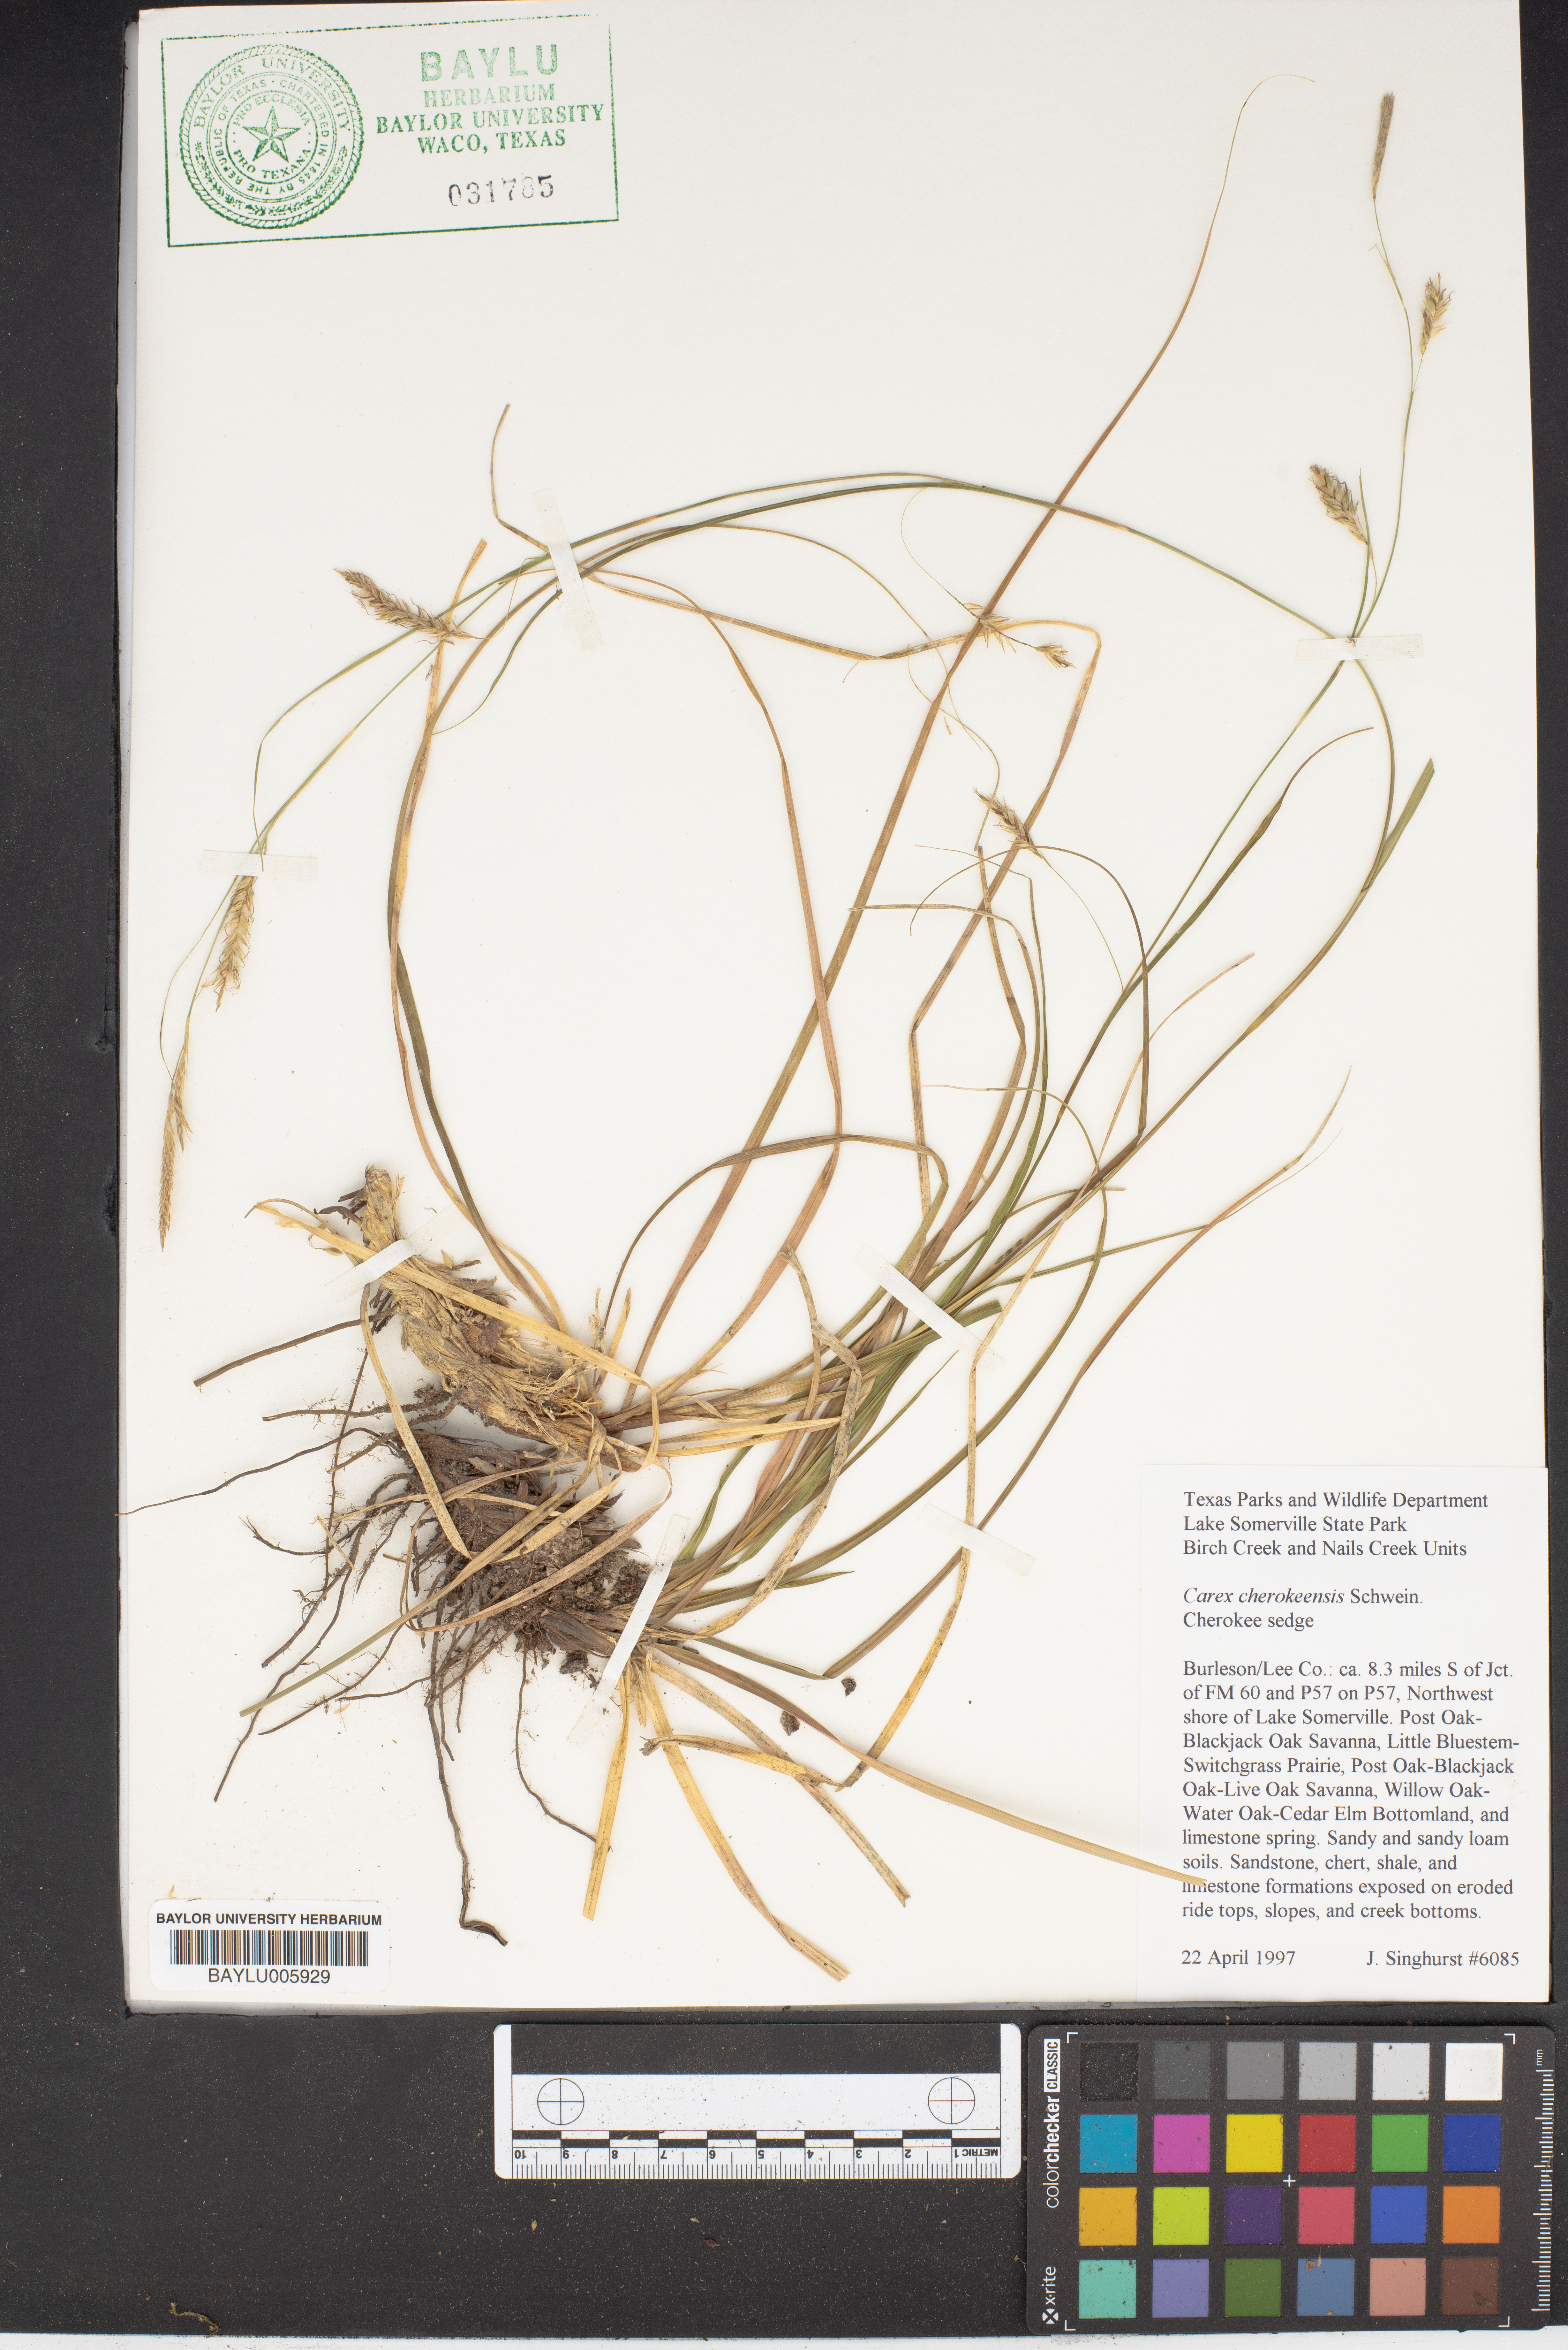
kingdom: Plantae
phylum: Tracheophyta
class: Liliopsida
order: Poales
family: Cyperaceae
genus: Carex
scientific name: Carex cherokeensis
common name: Cherokee sedge
